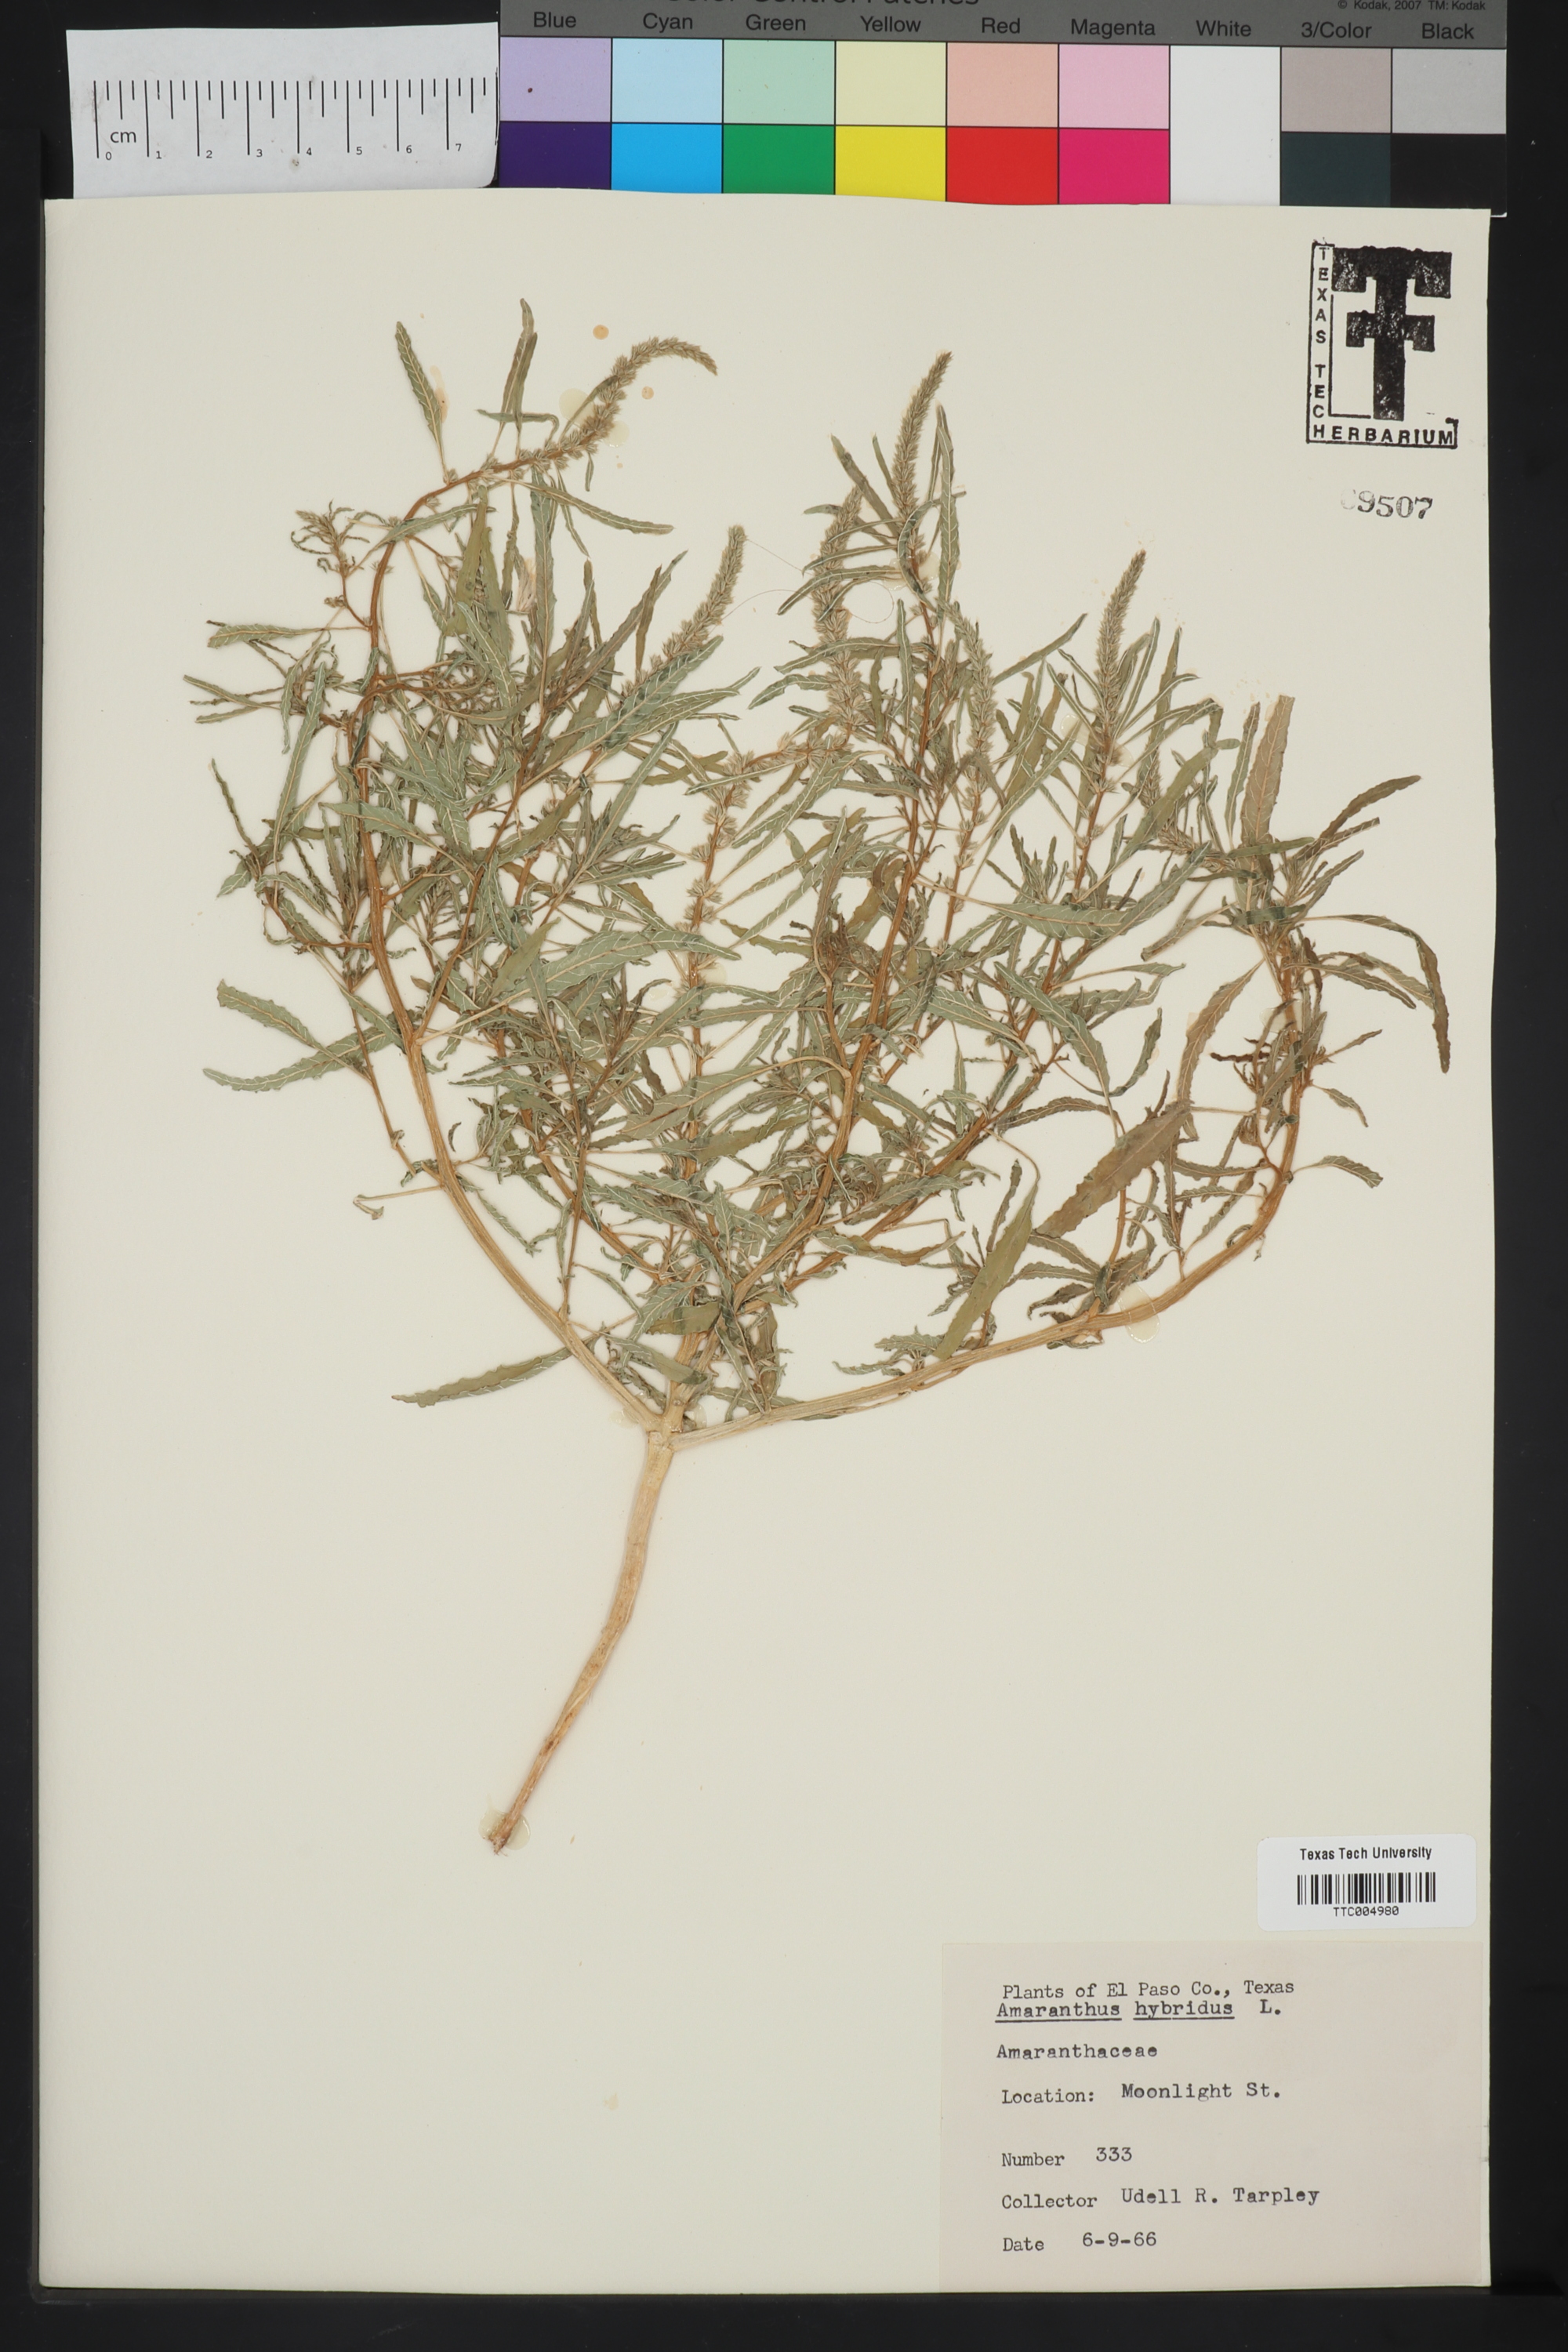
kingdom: Plantae
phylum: Tracheophyta
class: Magnoliopsida
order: Caryophyllales
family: Amaranthaceae
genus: Amaranthus
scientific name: Amaranthus hybridus
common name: Green amaranth
